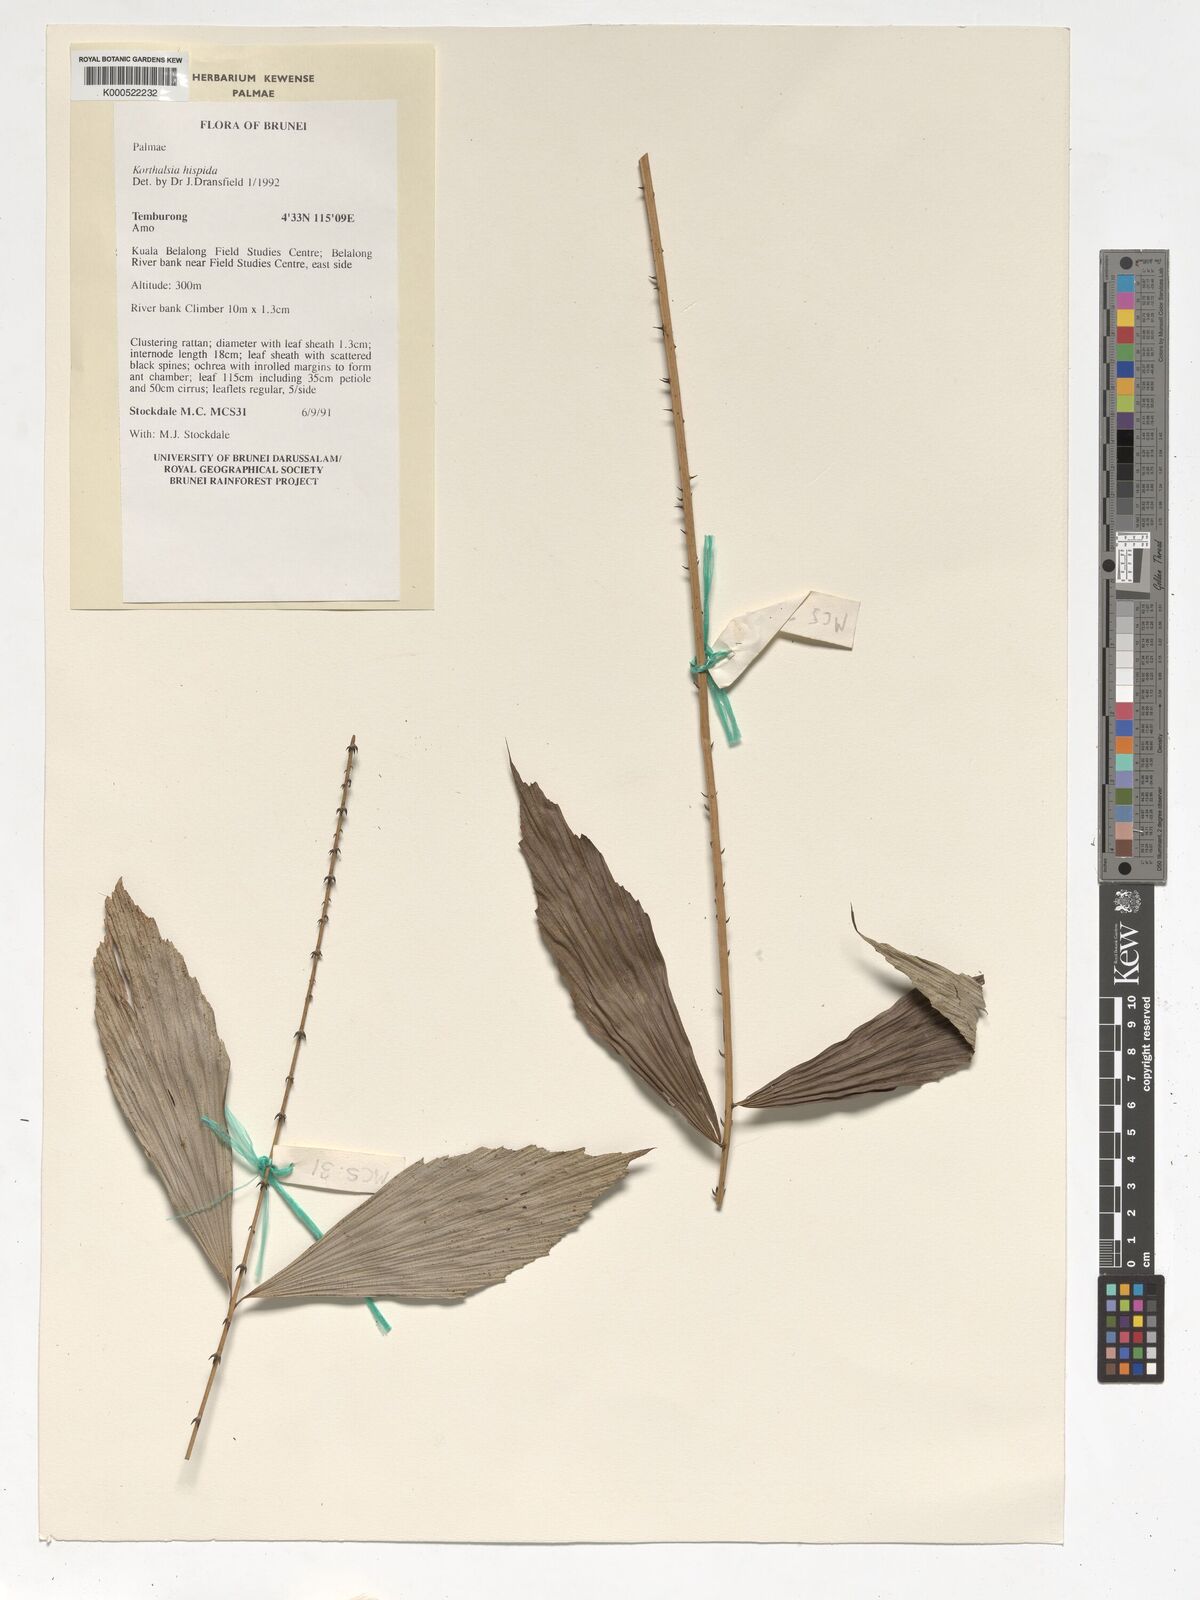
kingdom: Plantae
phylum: Tracheophyta
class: Liliopsida
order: Arecales
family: Arecaceae
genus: Korthalsia
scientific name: Korthalsia hispida
